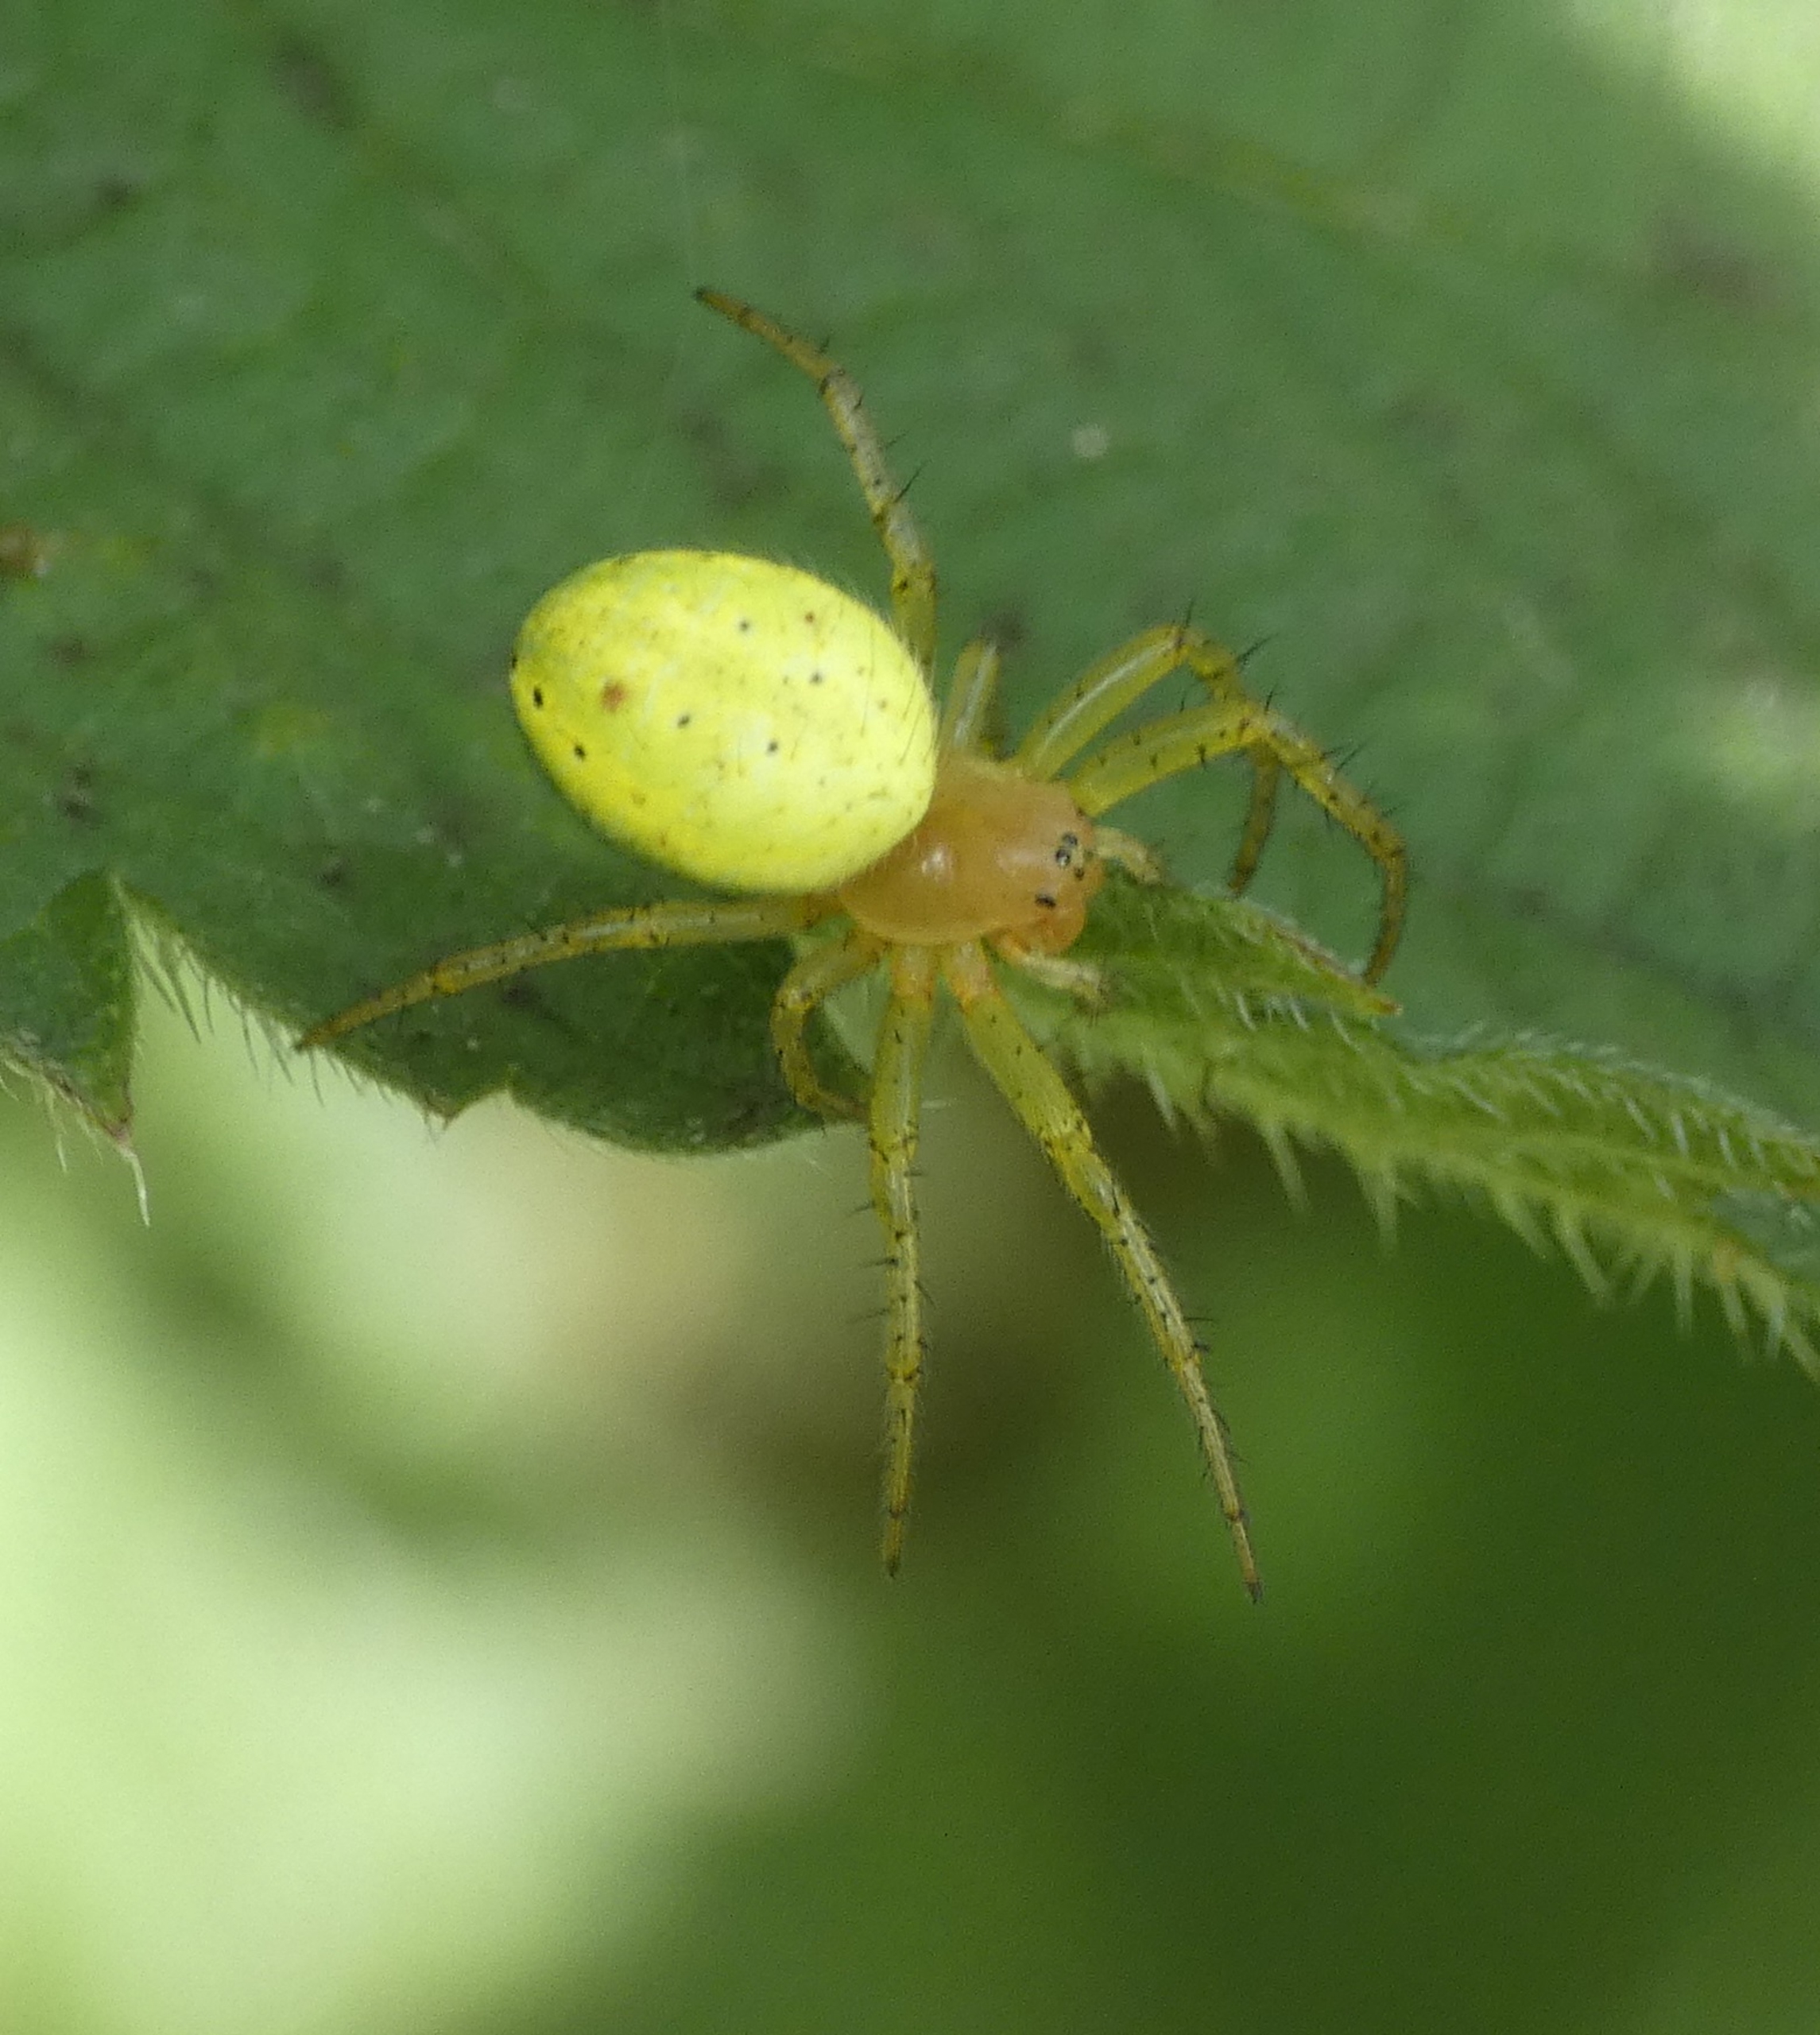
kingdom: Animalia
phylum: Arthropoda
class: Arachnida
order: Araneae
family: Araneidae
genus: Araniella
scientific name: Araniella
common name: Agurkeedderkopslægten
